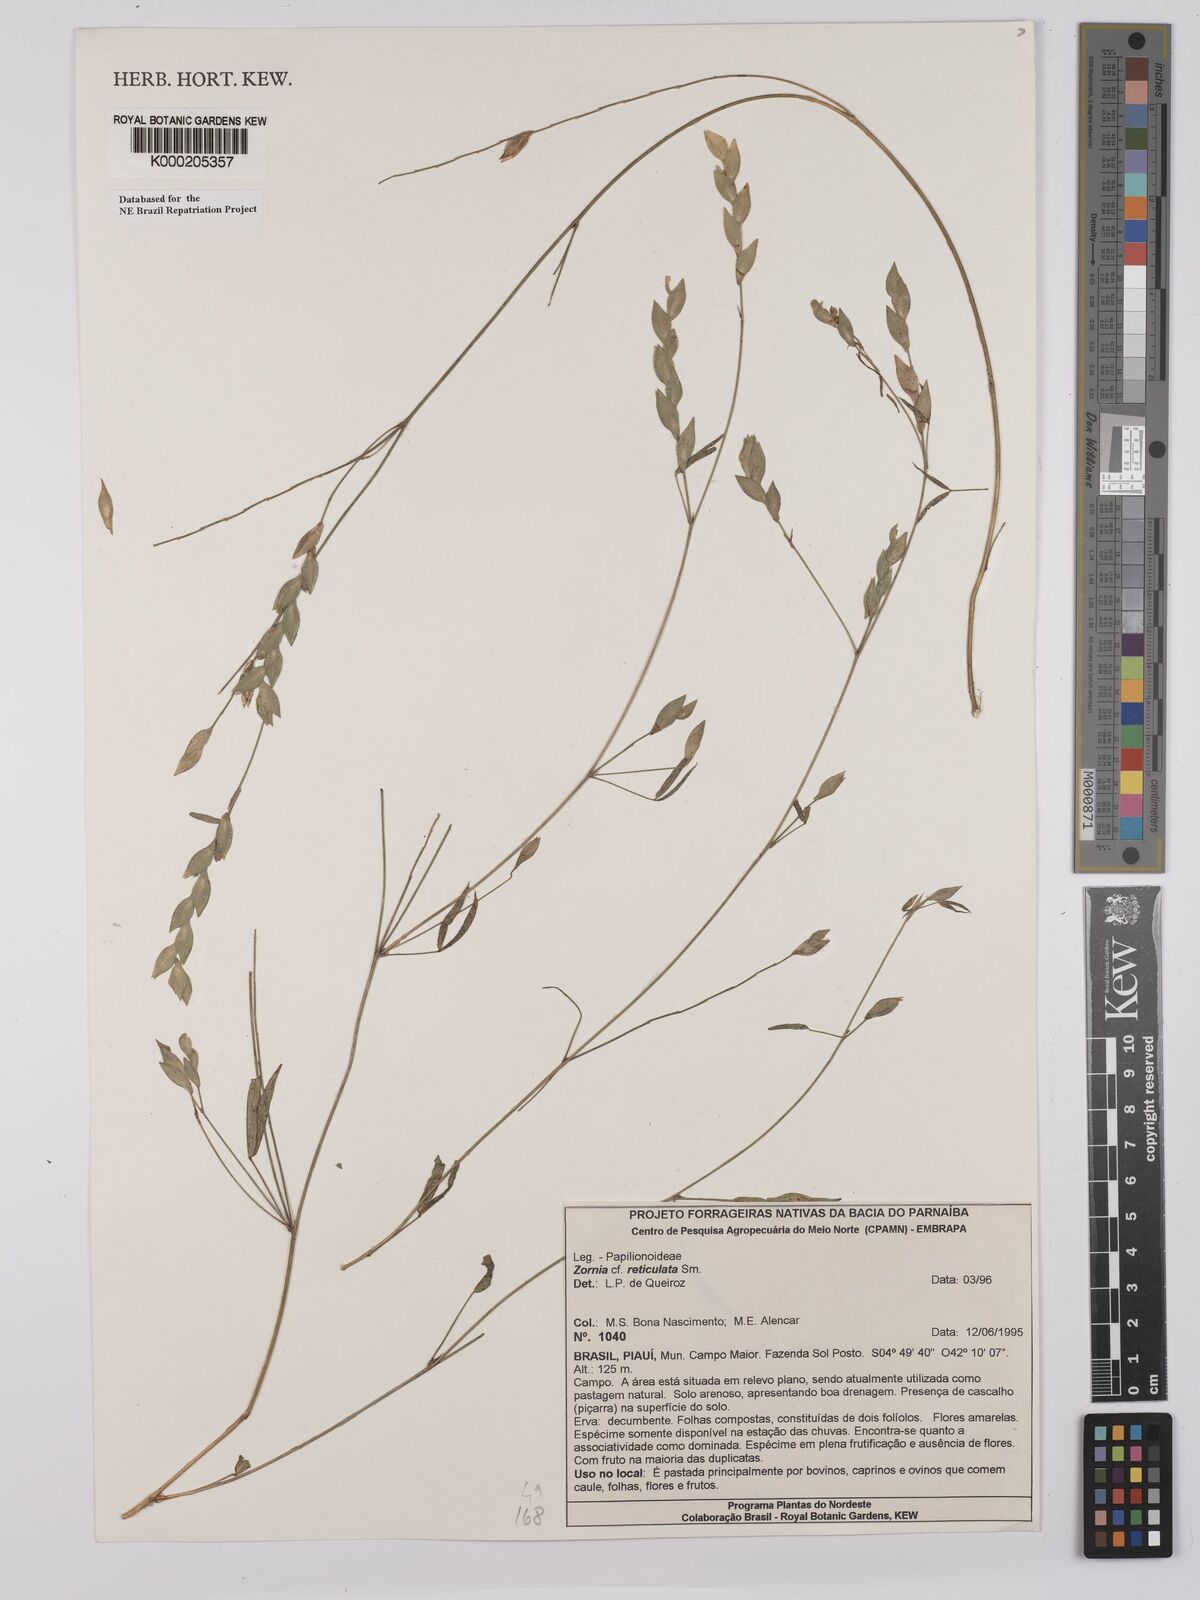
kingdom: Plantae
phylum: Tracheophyta
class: Magnoliopsida
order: Fabales
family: Fabaceae
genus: Zornia
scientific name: Zornia reticulata
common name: Reticulate viperina
